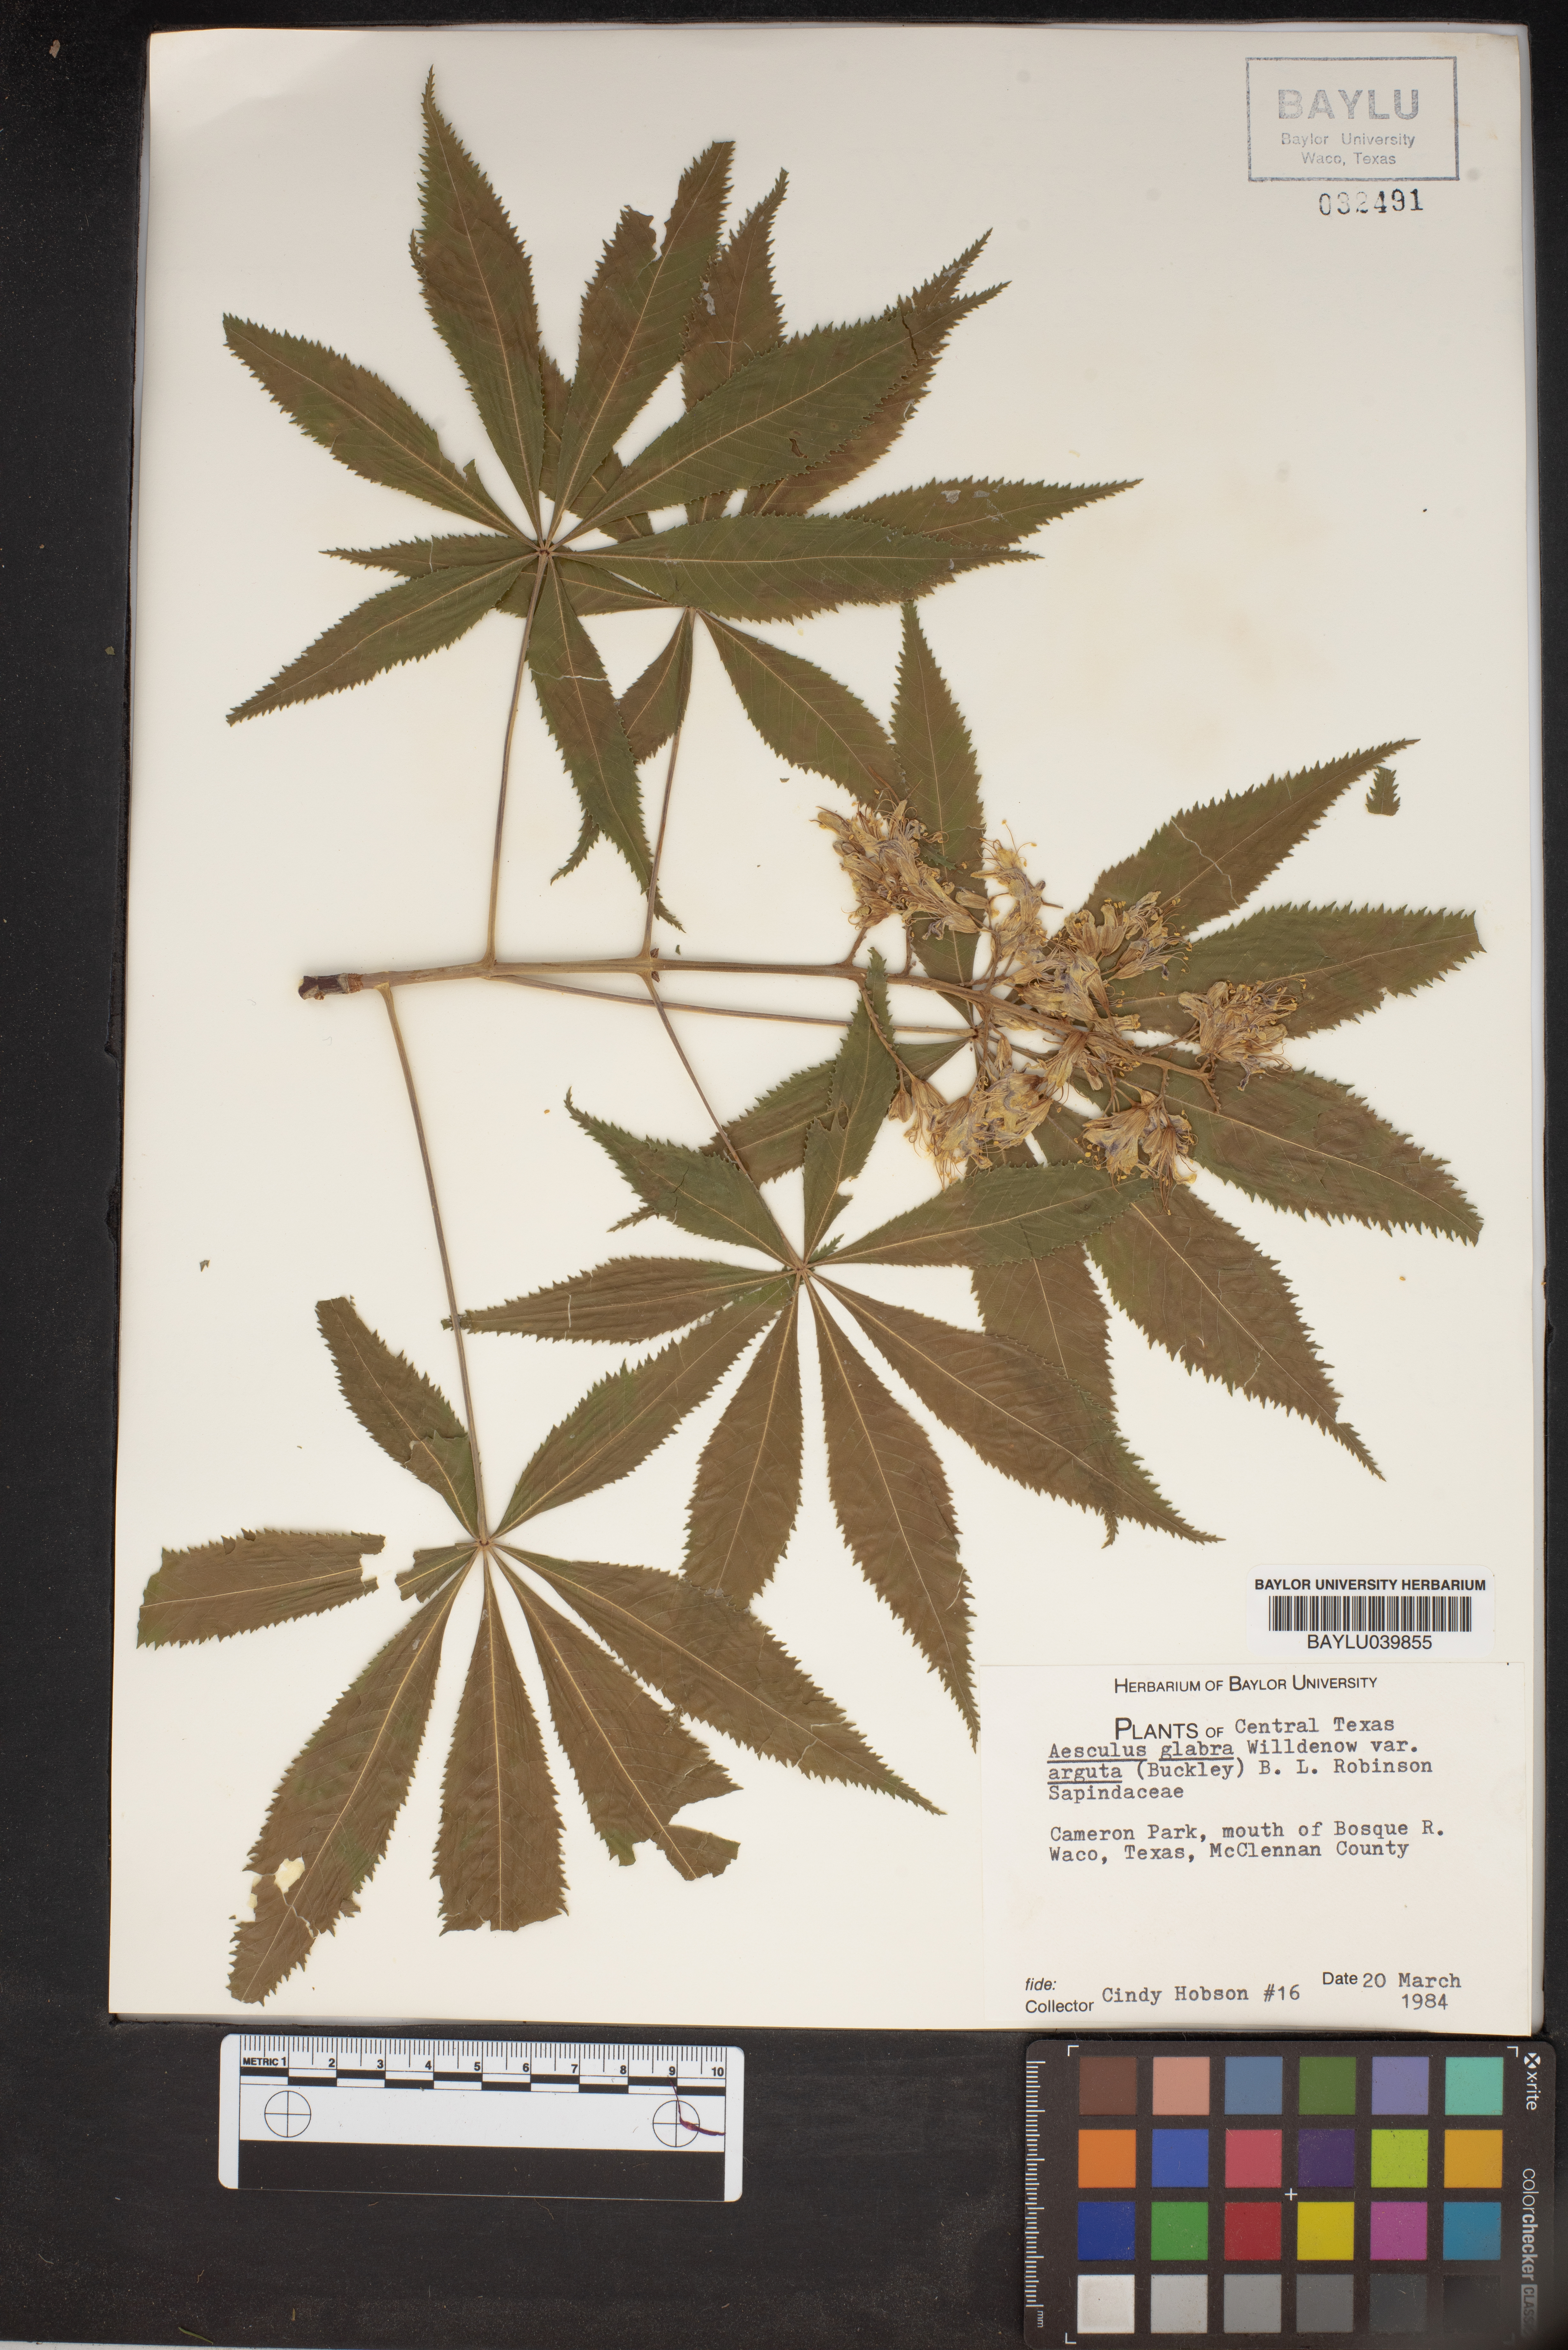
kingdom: Plantae
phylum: Tracheophyta
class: Magnoliopsida
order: Sapindales
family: Sapindaceae
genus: Aesculus
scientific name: Aesculus glabra
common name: Ohio buckeye
